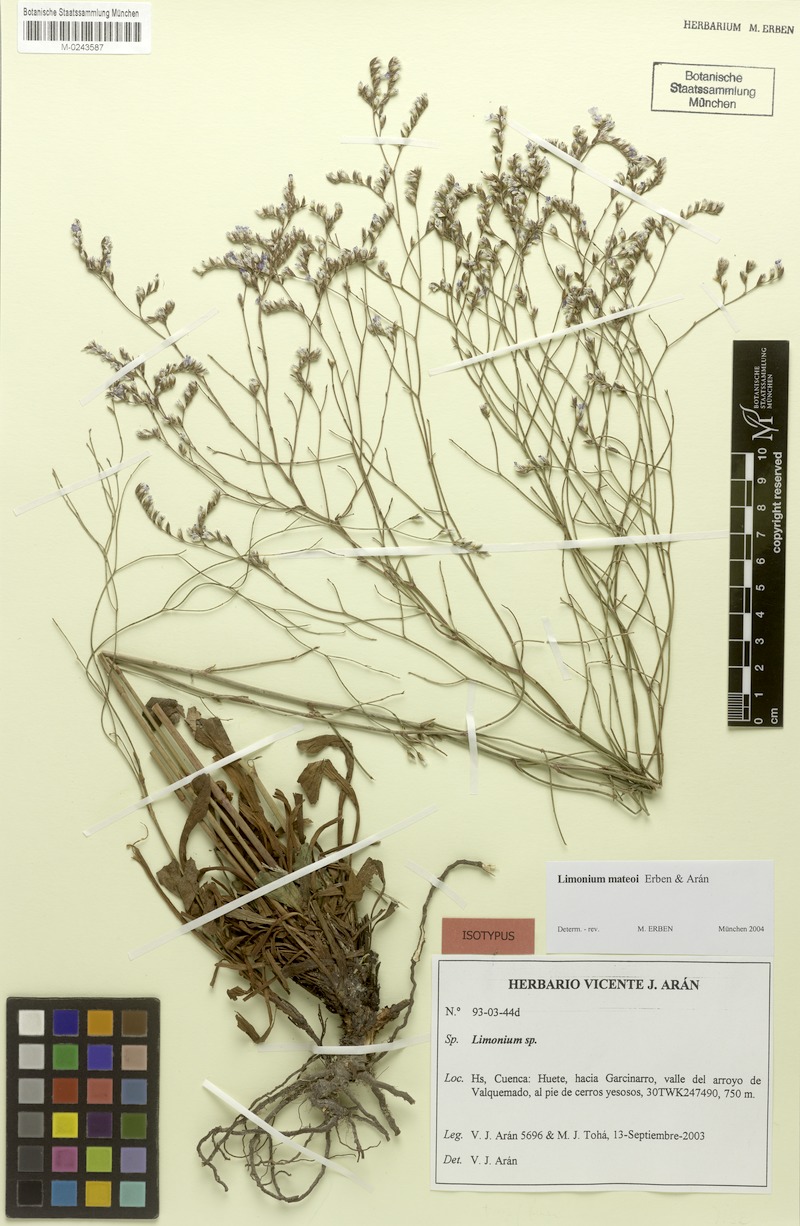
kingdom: Plantae
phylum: Tracheophyta
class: Magnoliopsida
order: Caryophyllales
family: Plumbaginaceae
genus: Limonium
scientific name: Limonium mateoi
